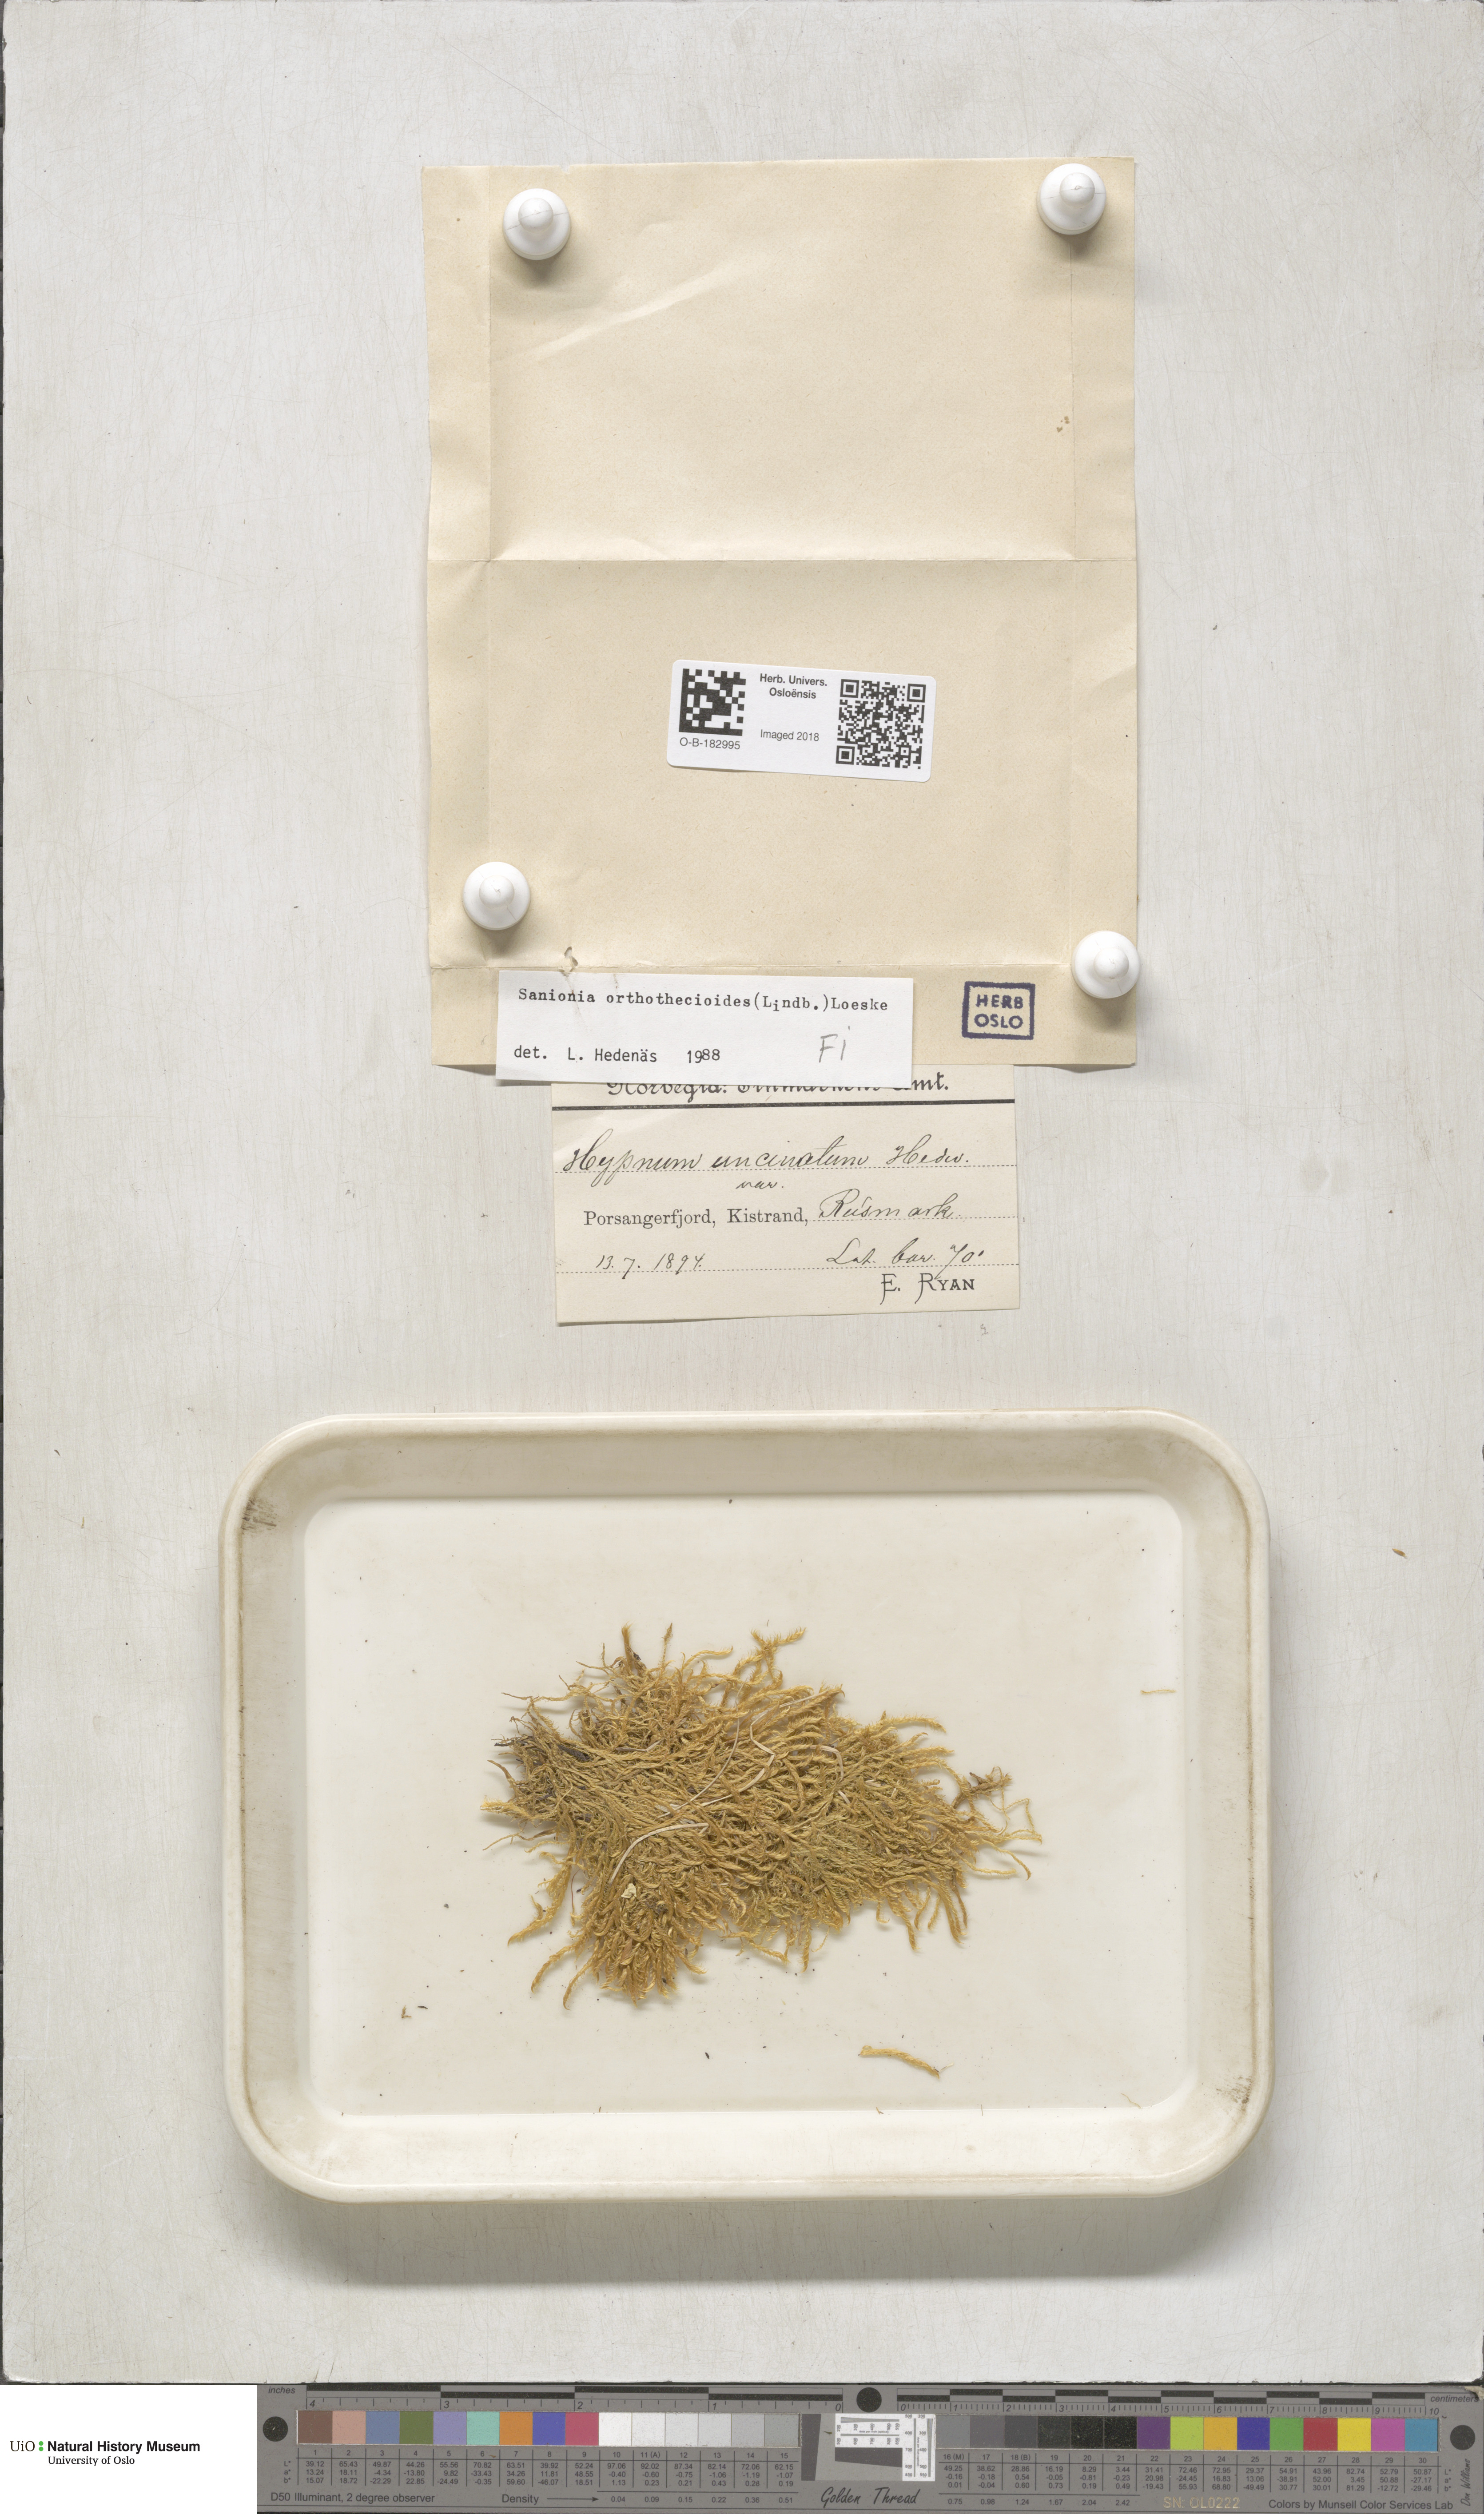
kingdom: Plantae
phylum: Bryophyta
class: Bryopsida
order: Hypnales
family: Scorpidiaceae
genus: Sanionia
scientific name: Sanionia orthothecioides
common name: Coastal hook moss
